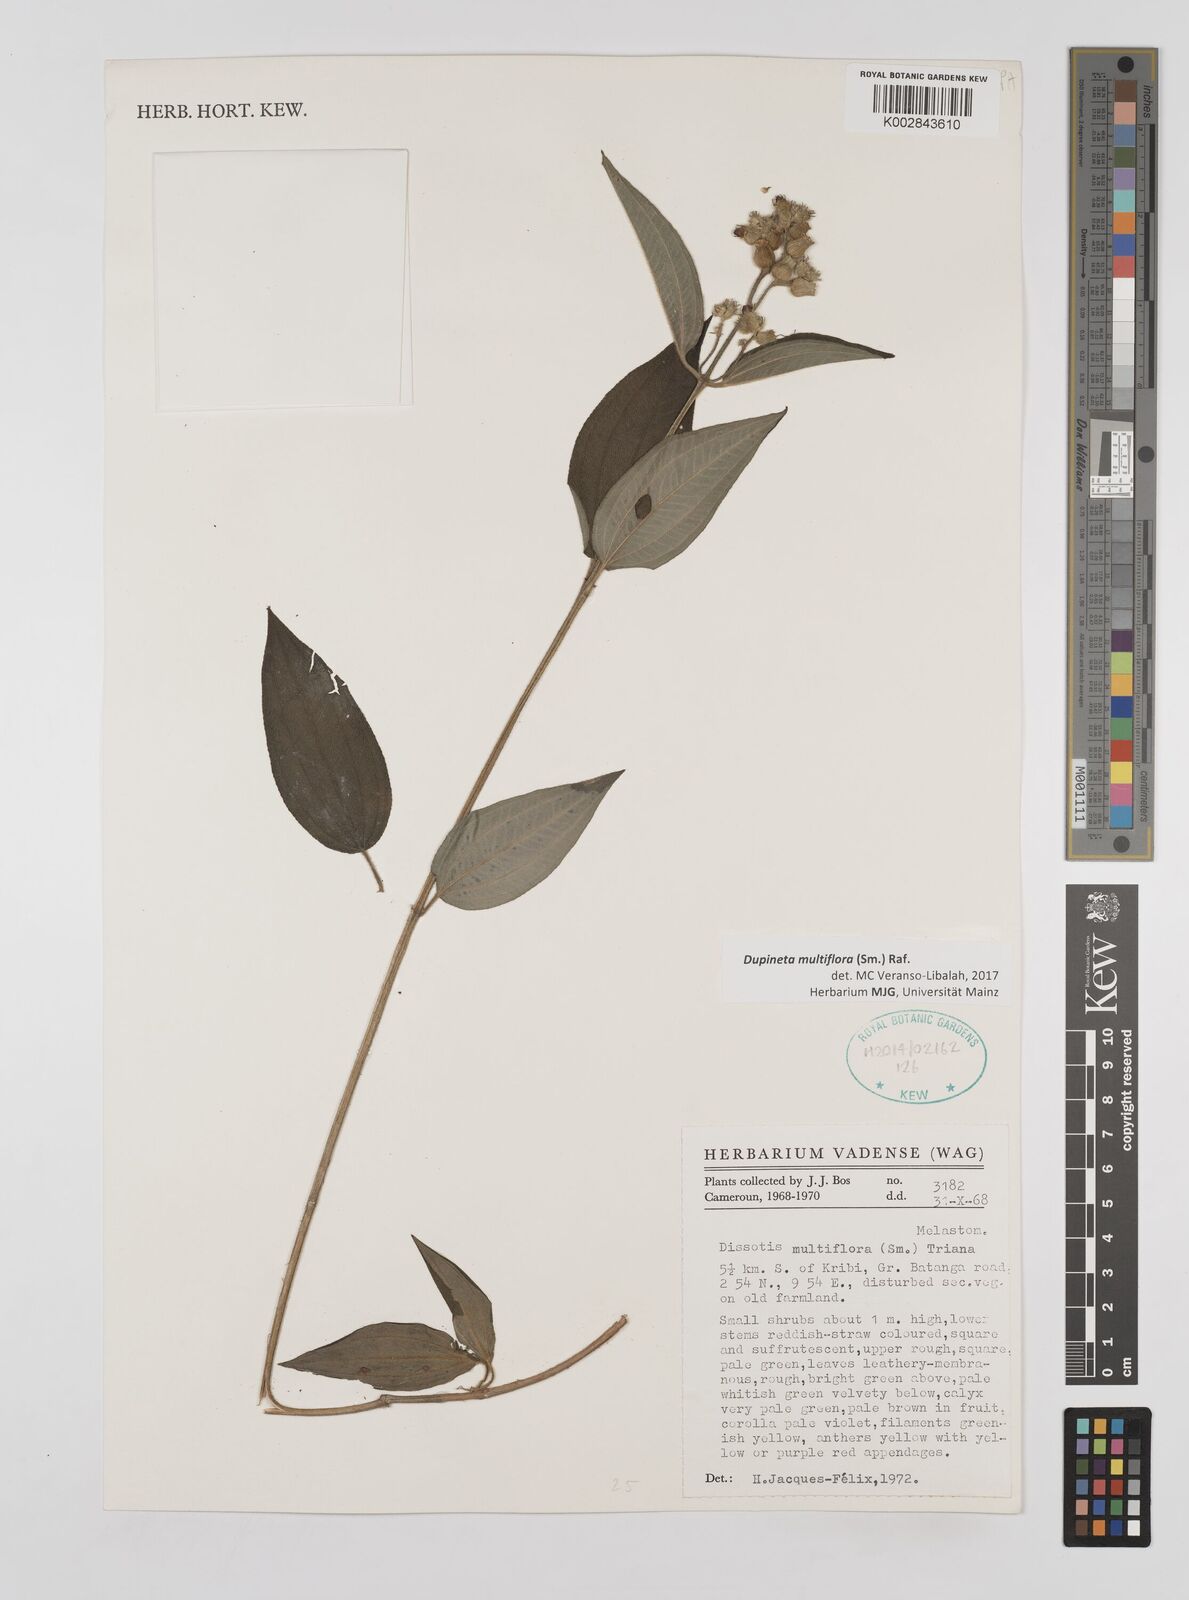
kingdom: Plantae
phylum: Tracheophyta
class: Magnoliopsida
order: Myrtales
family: Melastomataceae
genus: Dupineta
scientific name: Dupineta multiflora
